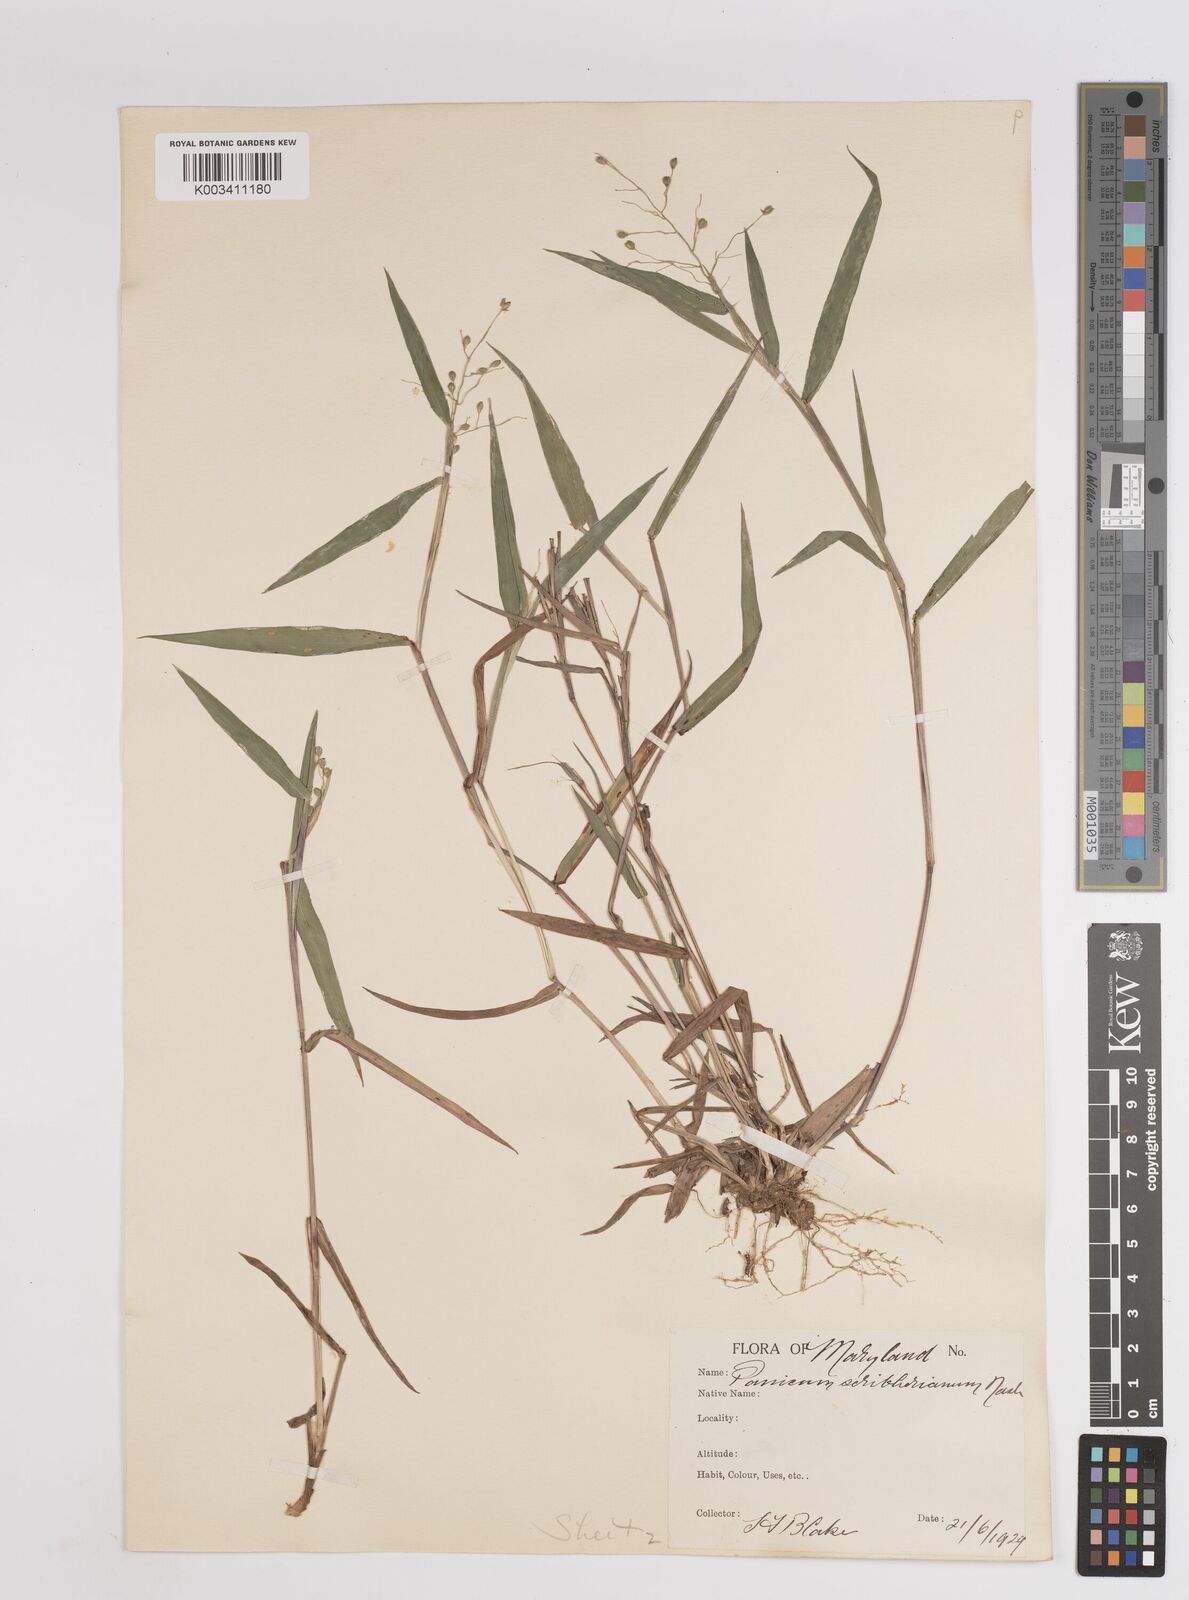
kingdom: Plantae
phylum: Tracheophyta
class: Liliopsida
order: Poales
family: Poaceae
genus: Dichanthelium
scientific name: Dichanthelium scribnerianum
